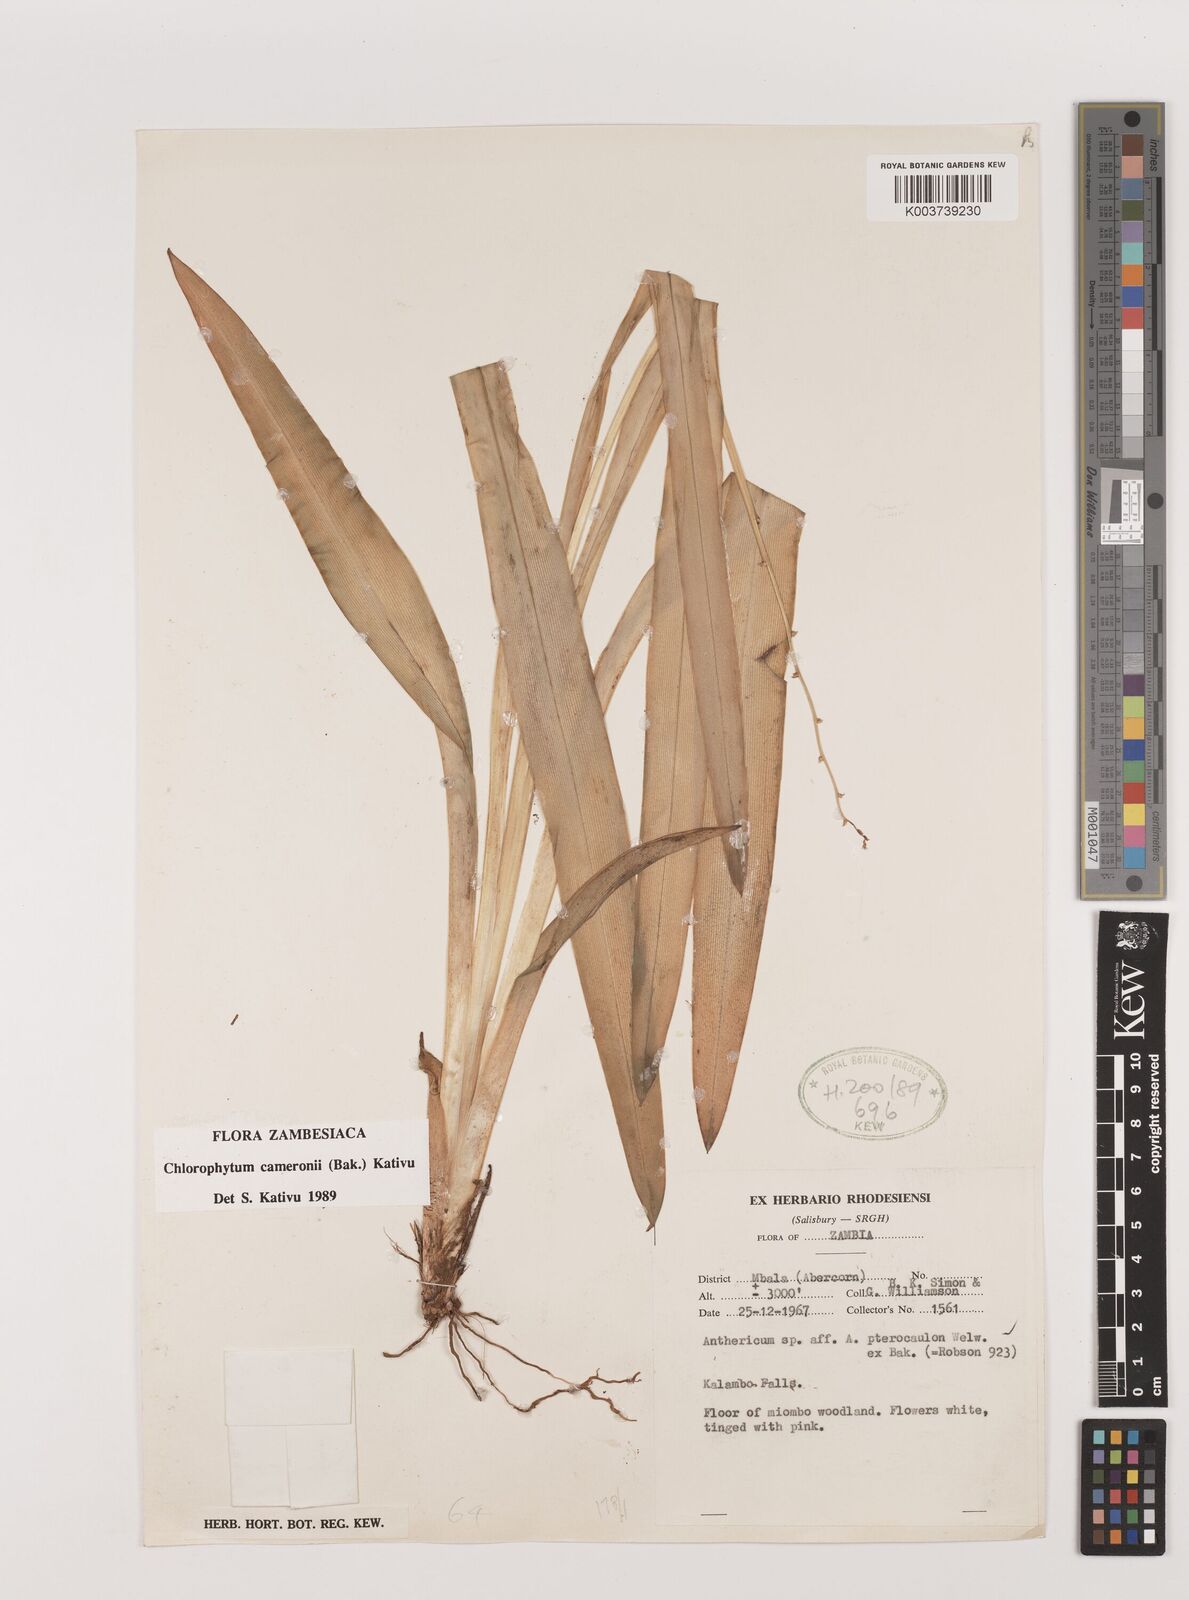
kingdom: Plantae
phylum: Tracheophyta
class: Liliopsida
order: Asparagales
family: Asparagaceae
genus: Chlorophytum
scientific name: Chlorophytum cameronii
